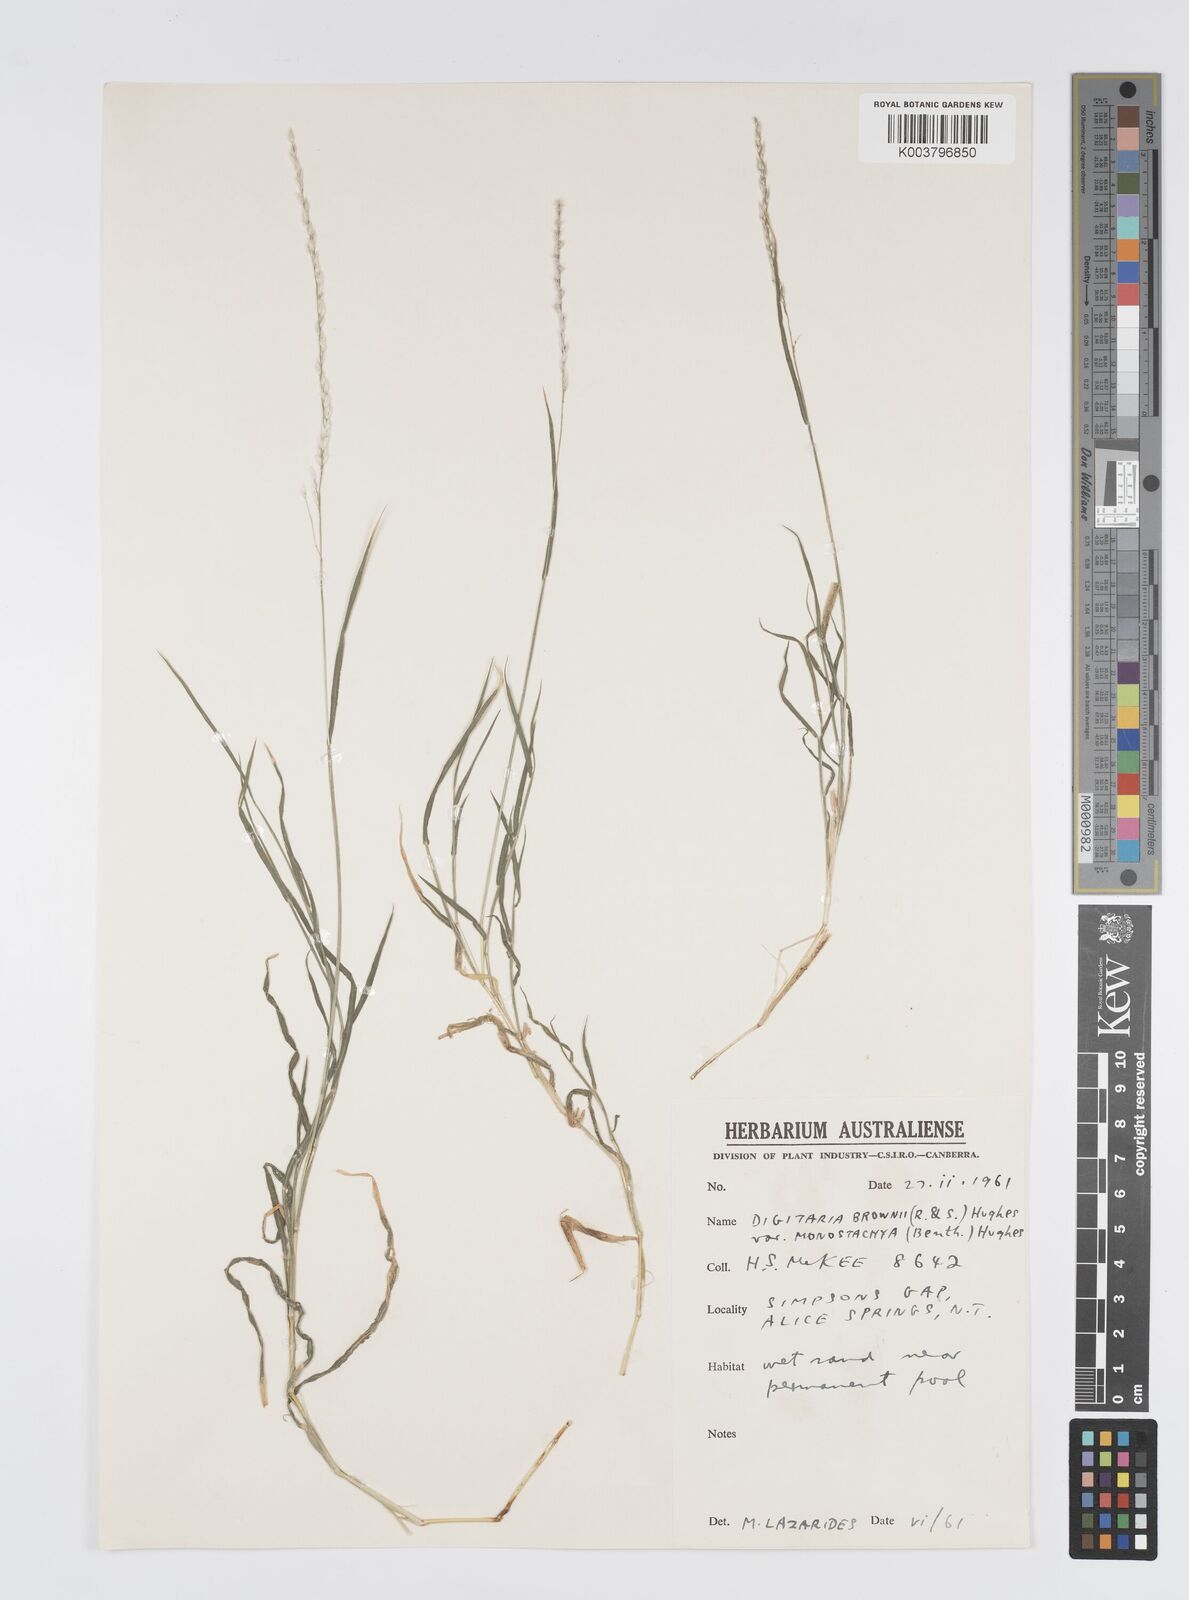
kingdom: Plantae
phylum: Tracheophyta
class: Liliopsida
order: Poales
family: Poaceae
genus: Digitaria
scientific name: Digitaria brownii
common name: Cotton grass
